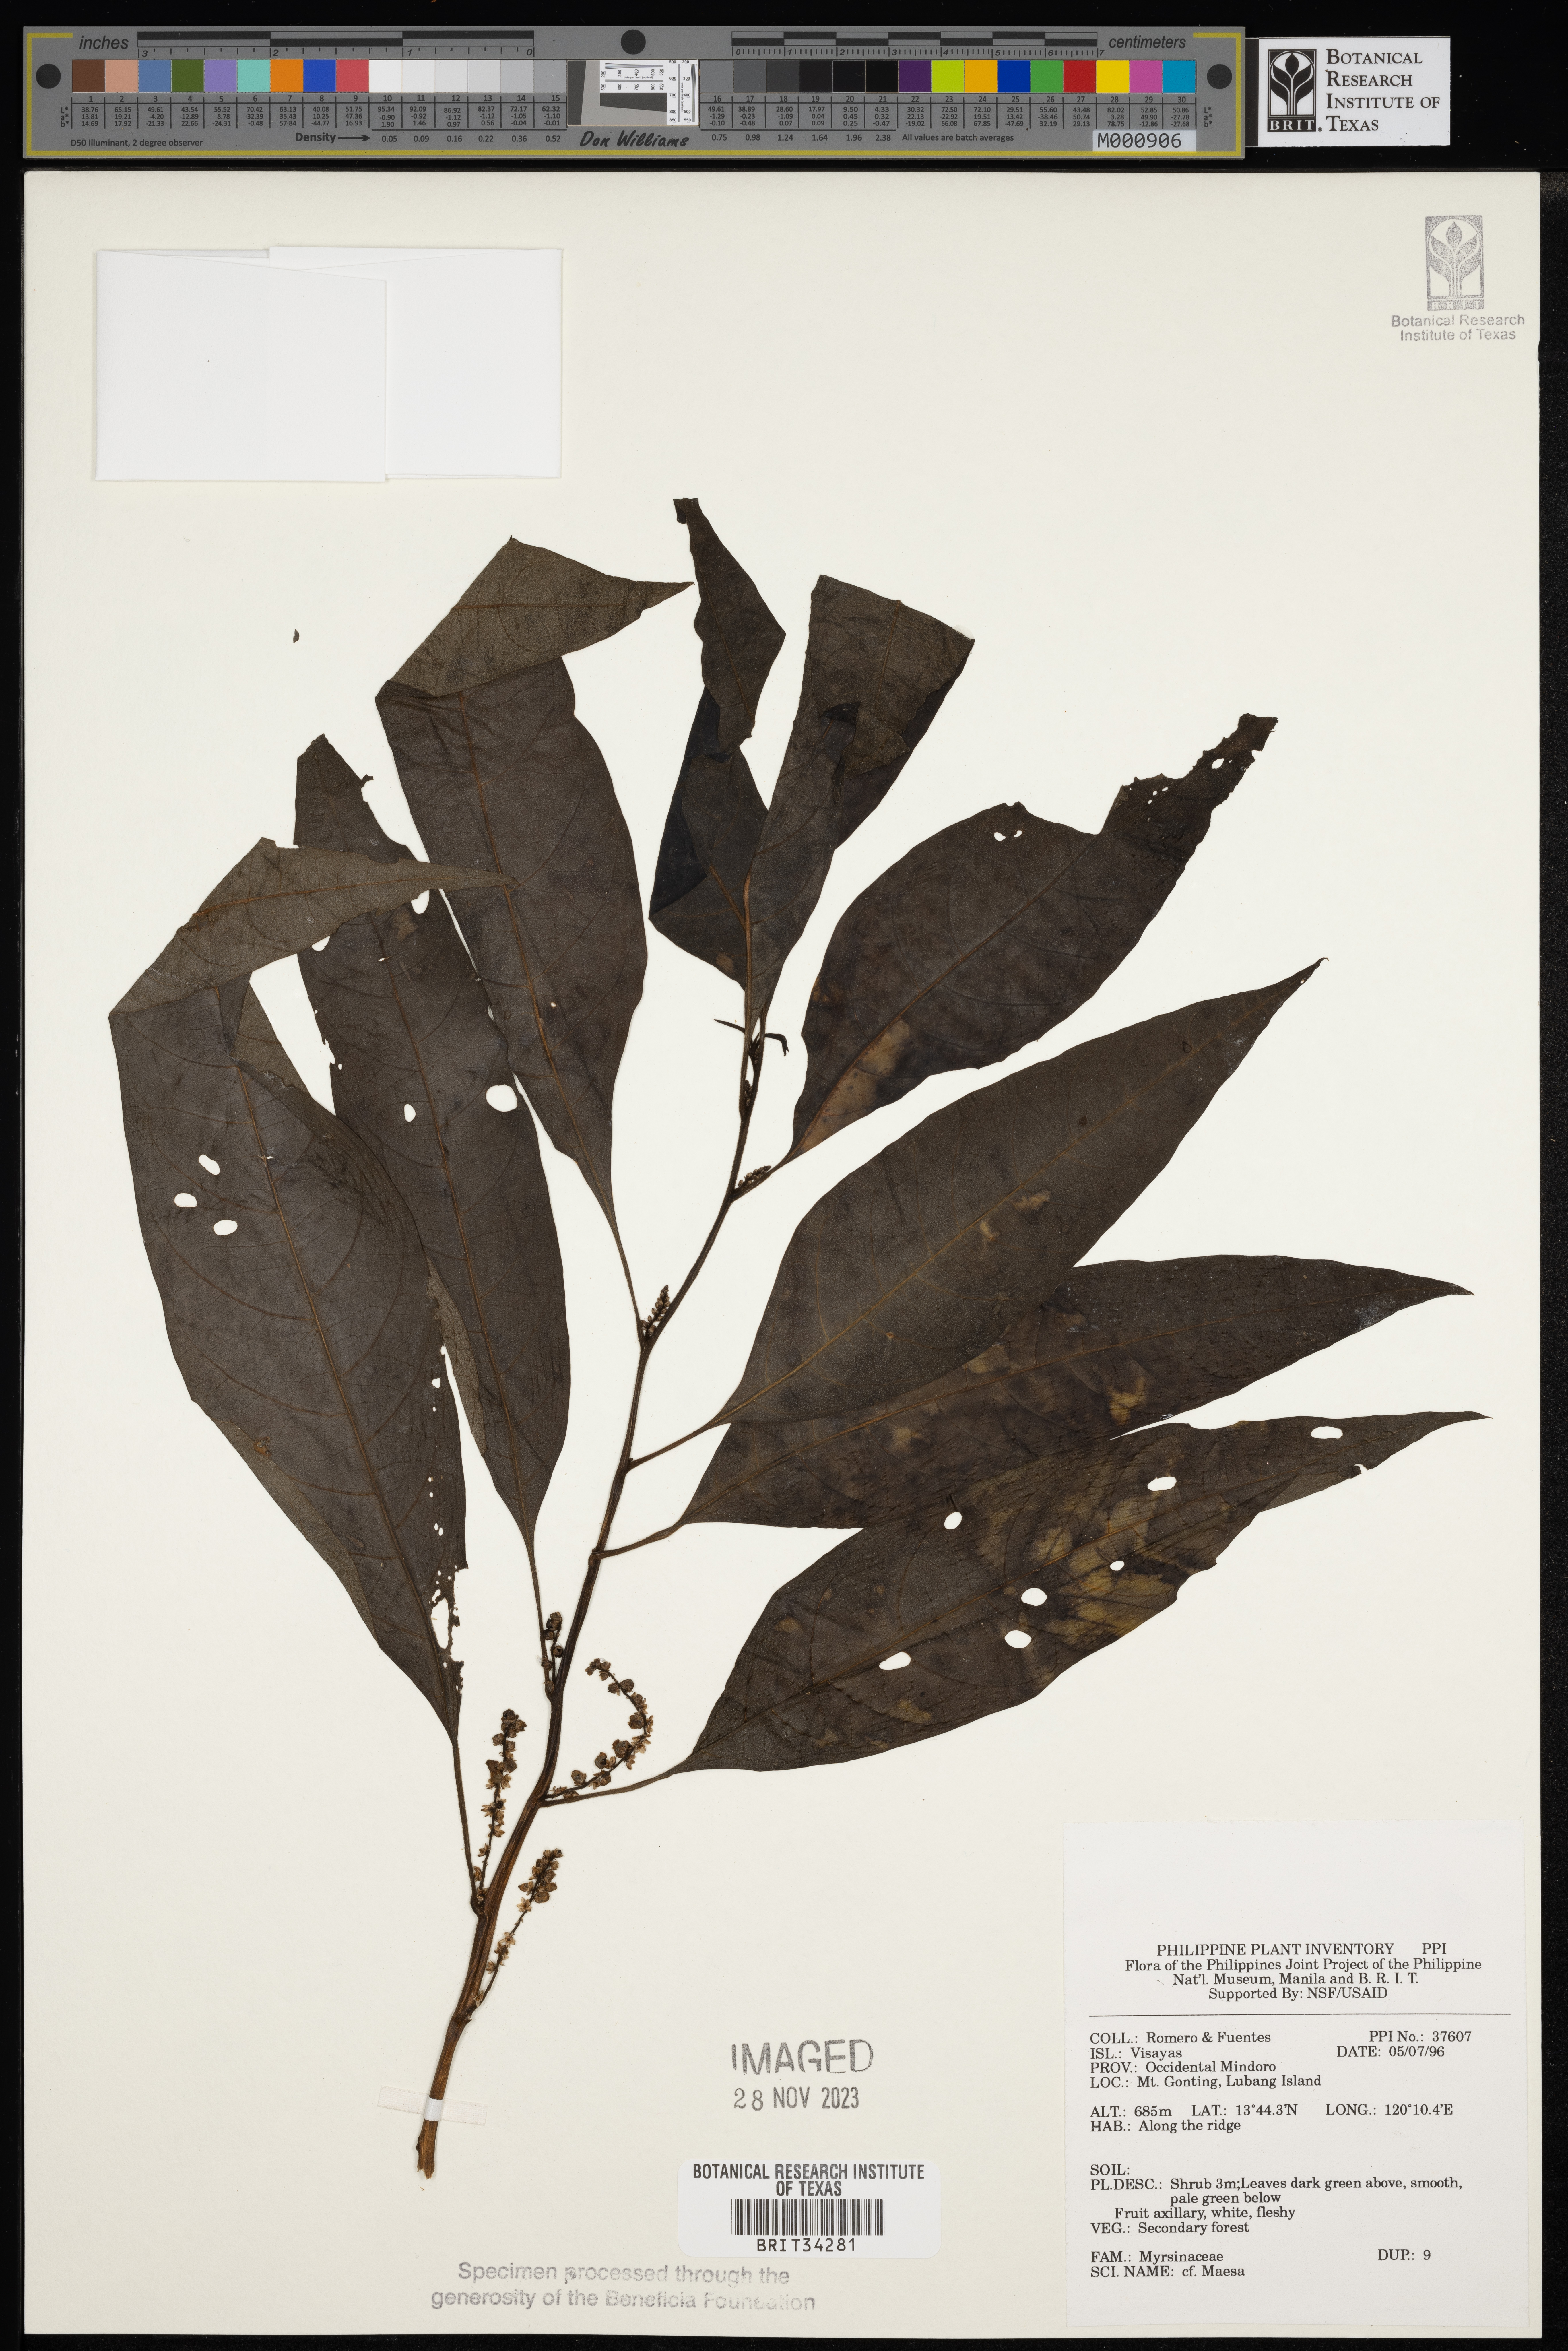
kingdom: Plantae
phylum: Tracheophyta
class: Magnoliopsida
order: Ericales
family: Primulaceae
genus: Maesa
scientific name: Maesa
